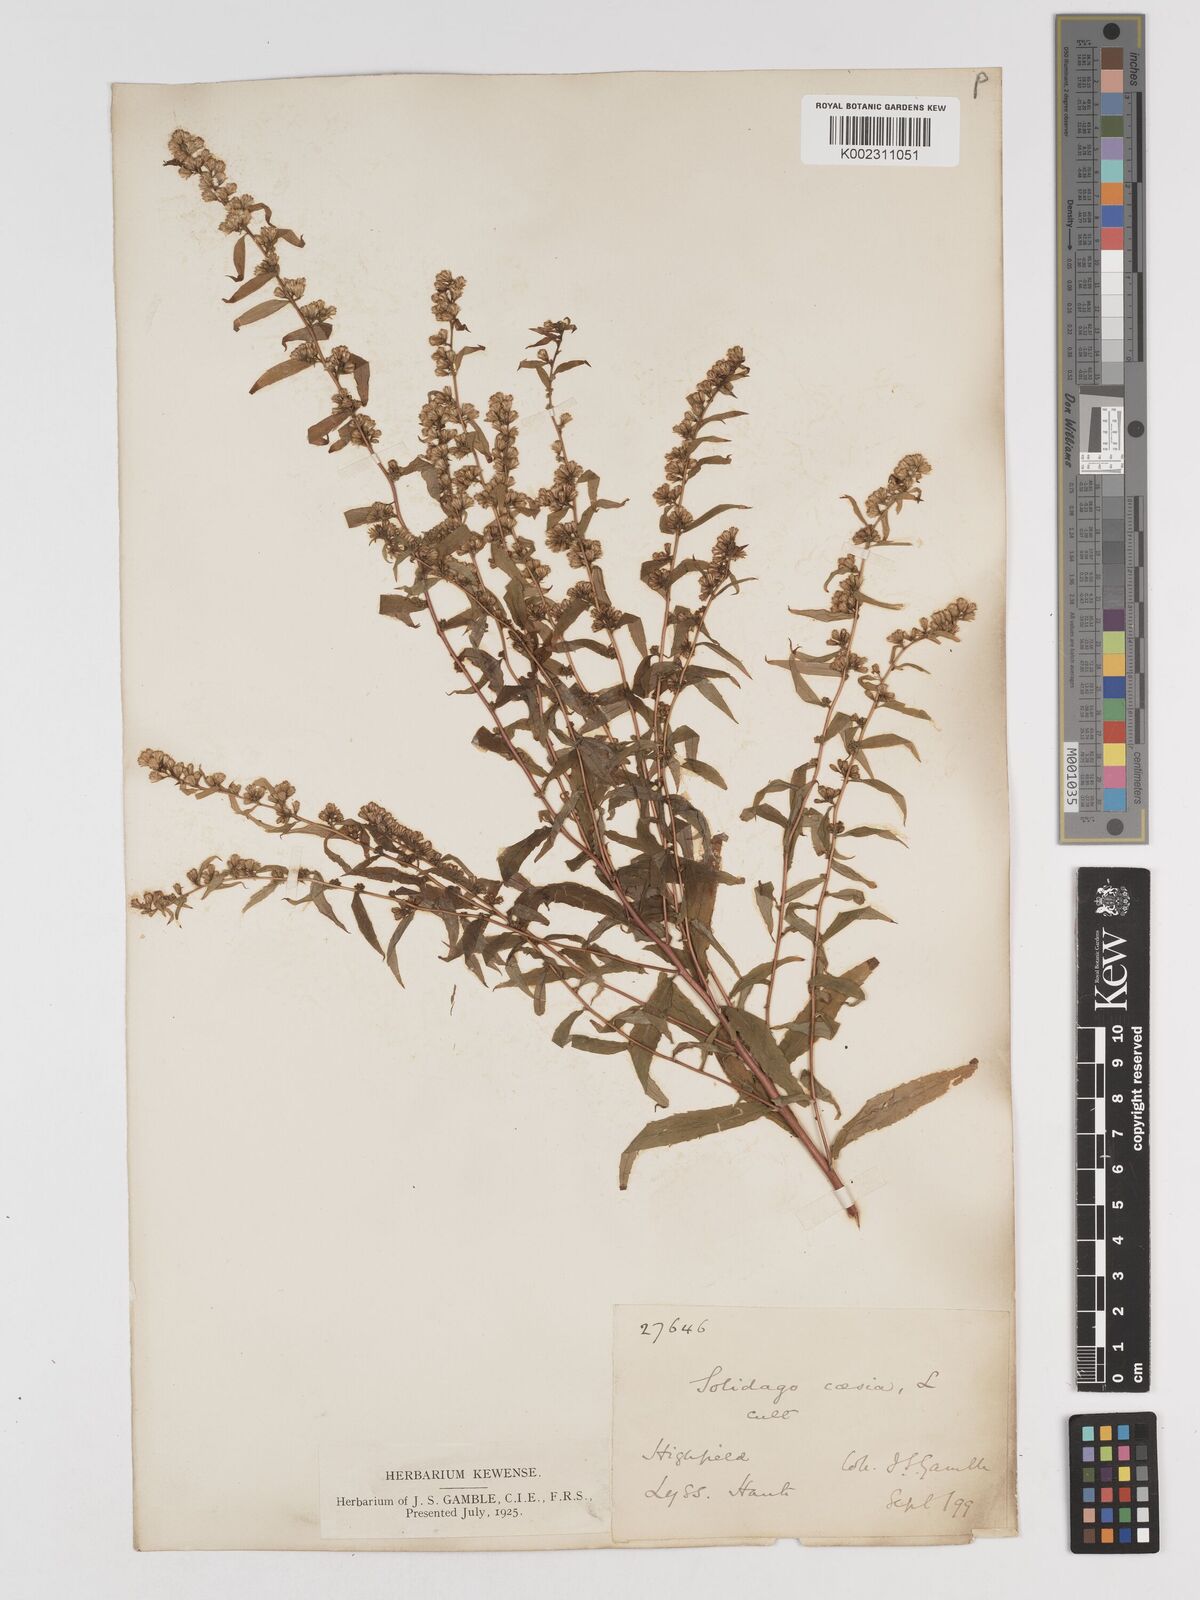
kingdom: Plantae
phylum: Tracheophyta
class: Magnoliopsida
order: Asterales
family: Asteraceae
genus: Solidago
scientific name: Solidago caesia
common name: Woodland goldenrod
